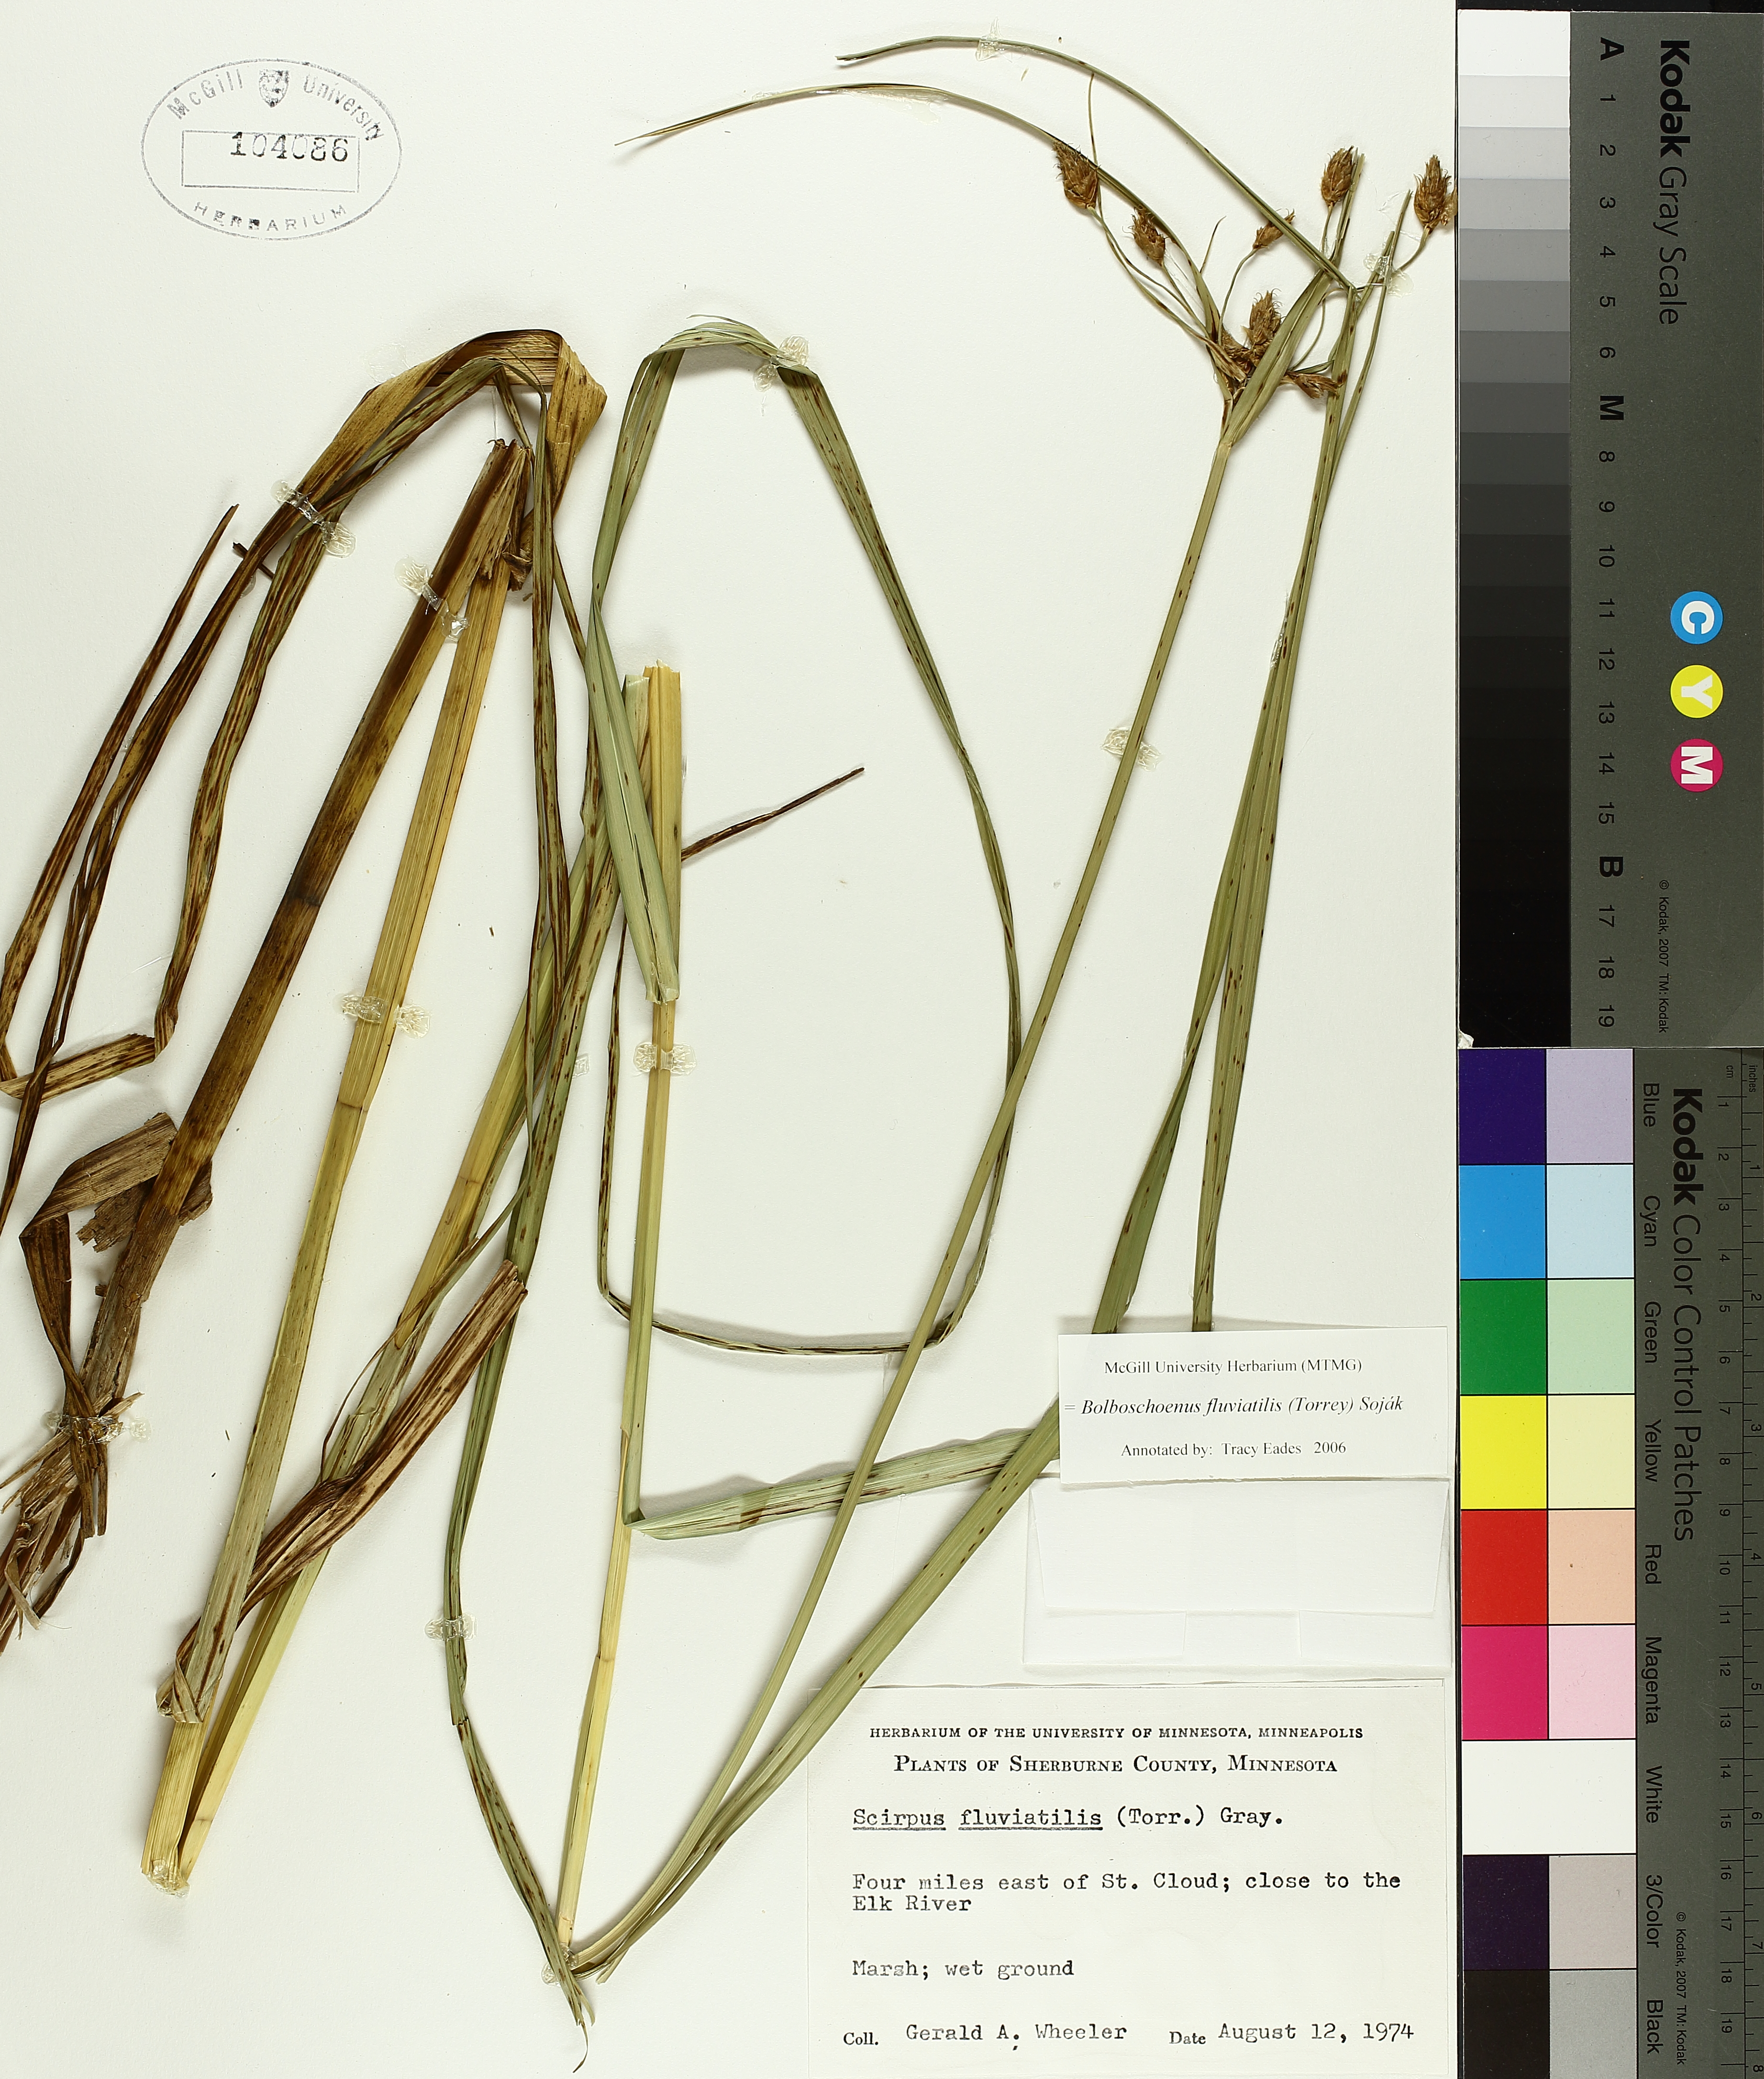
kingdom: Plantae
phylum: Tracheophyta
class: Liliopsida
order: Poales
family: Cyperaceae
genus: Bolboschoenus
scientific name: Bolboschoenus fluviatilis
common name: River bulrush
